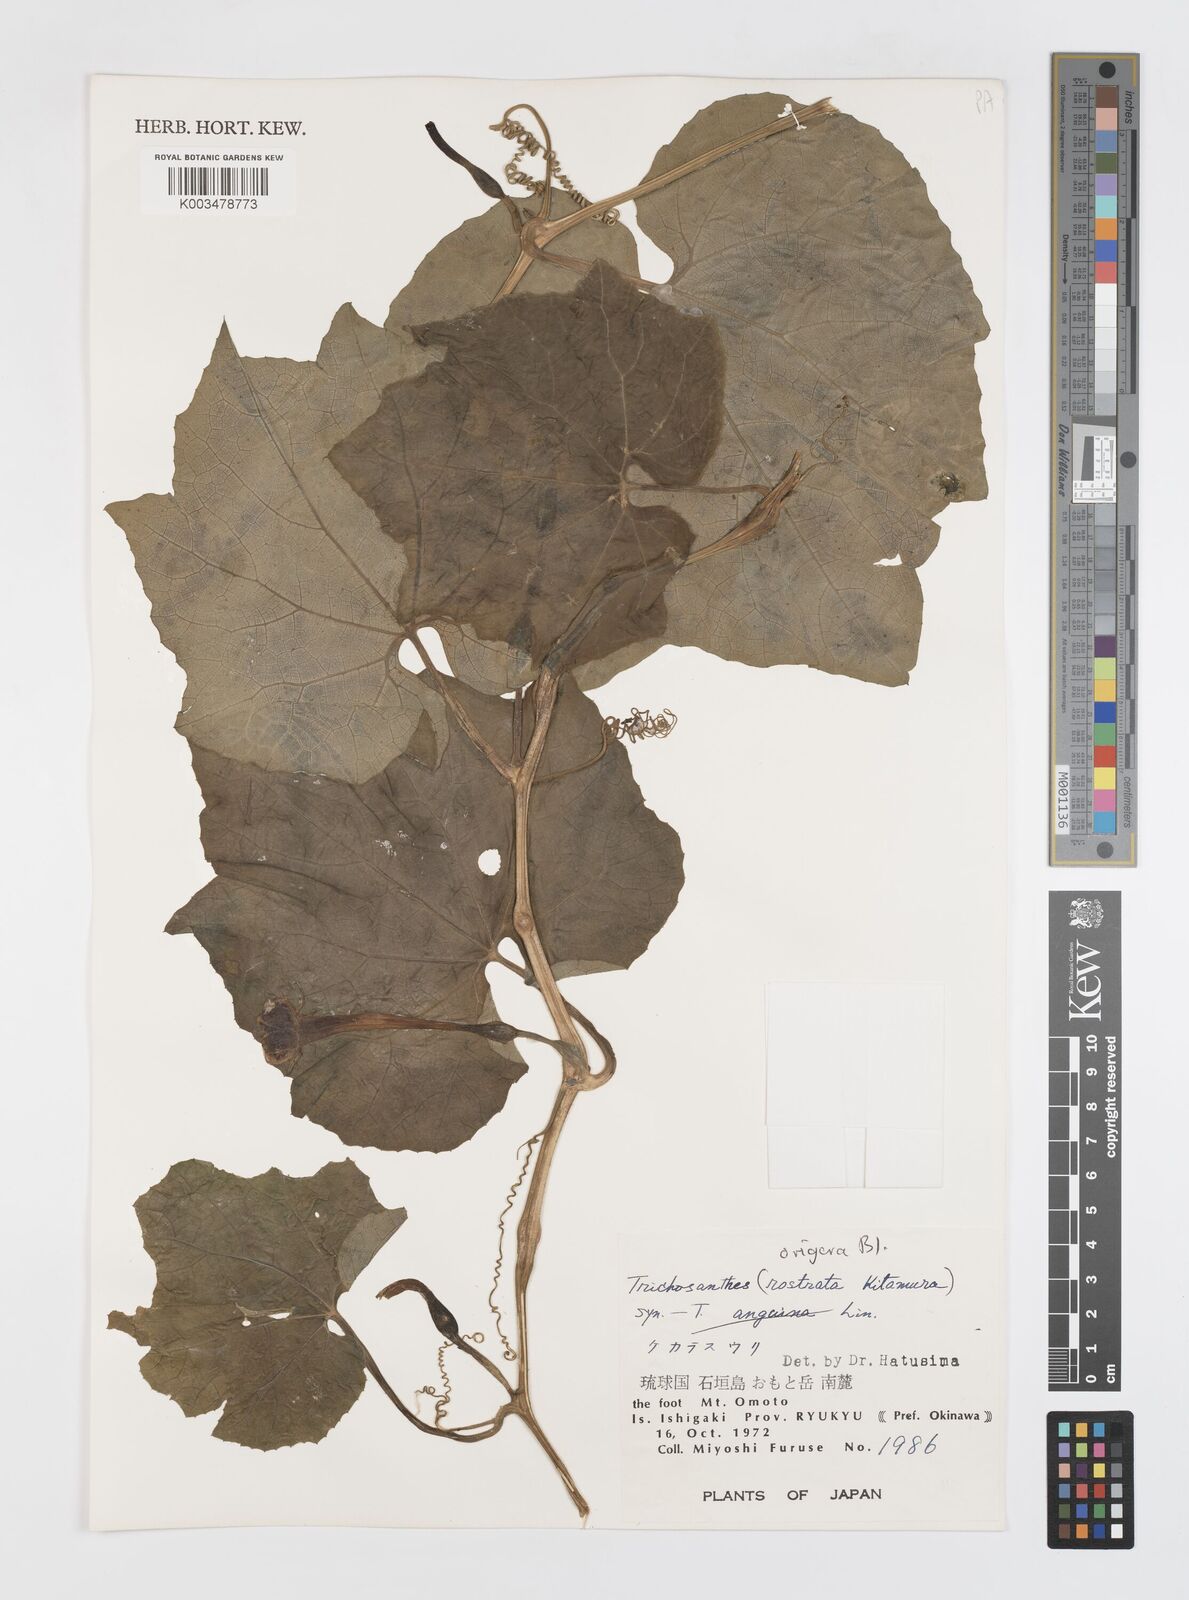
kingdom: Plantae
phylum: Tracheophyta
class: Magnoliopsida
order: Cucurbitales
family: Cucurbitaceae
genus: Trichosanthes
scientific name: Trichosanthes ovigera
